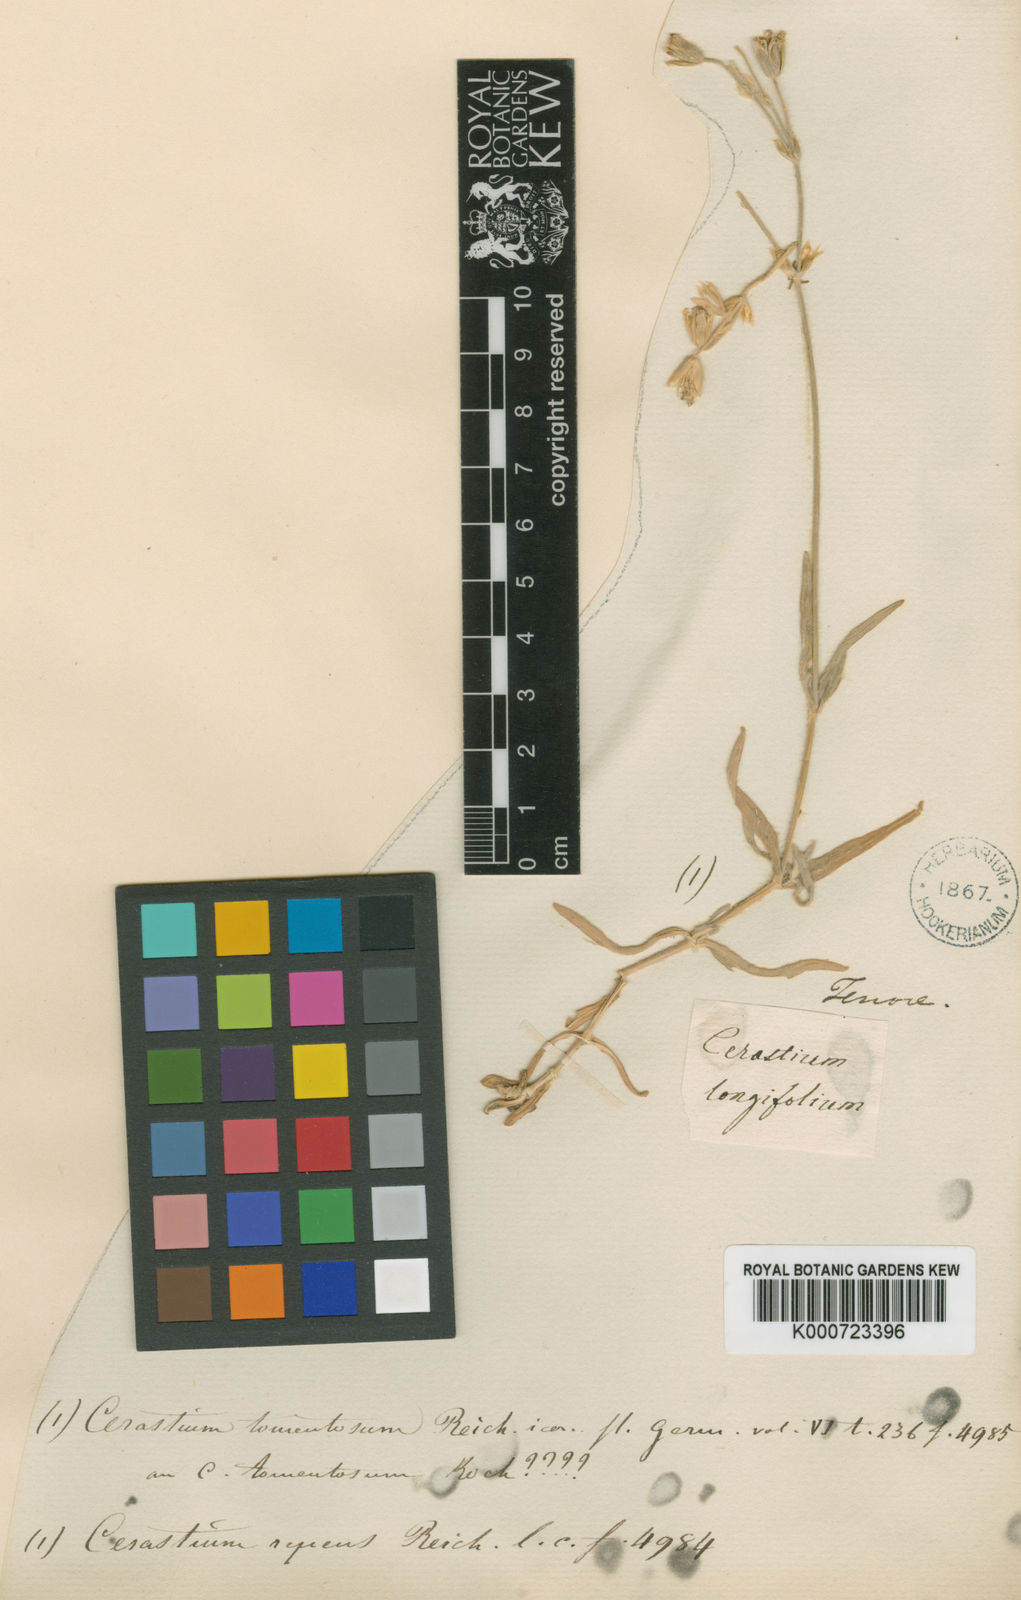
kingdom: Plantae
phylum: Tracheophyta
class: Magnoliopsida
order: Caryophyllales
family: Caryophyllaceae
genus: Cerastium
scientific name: Cerastium glomeratum
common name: Sticky chickweed
